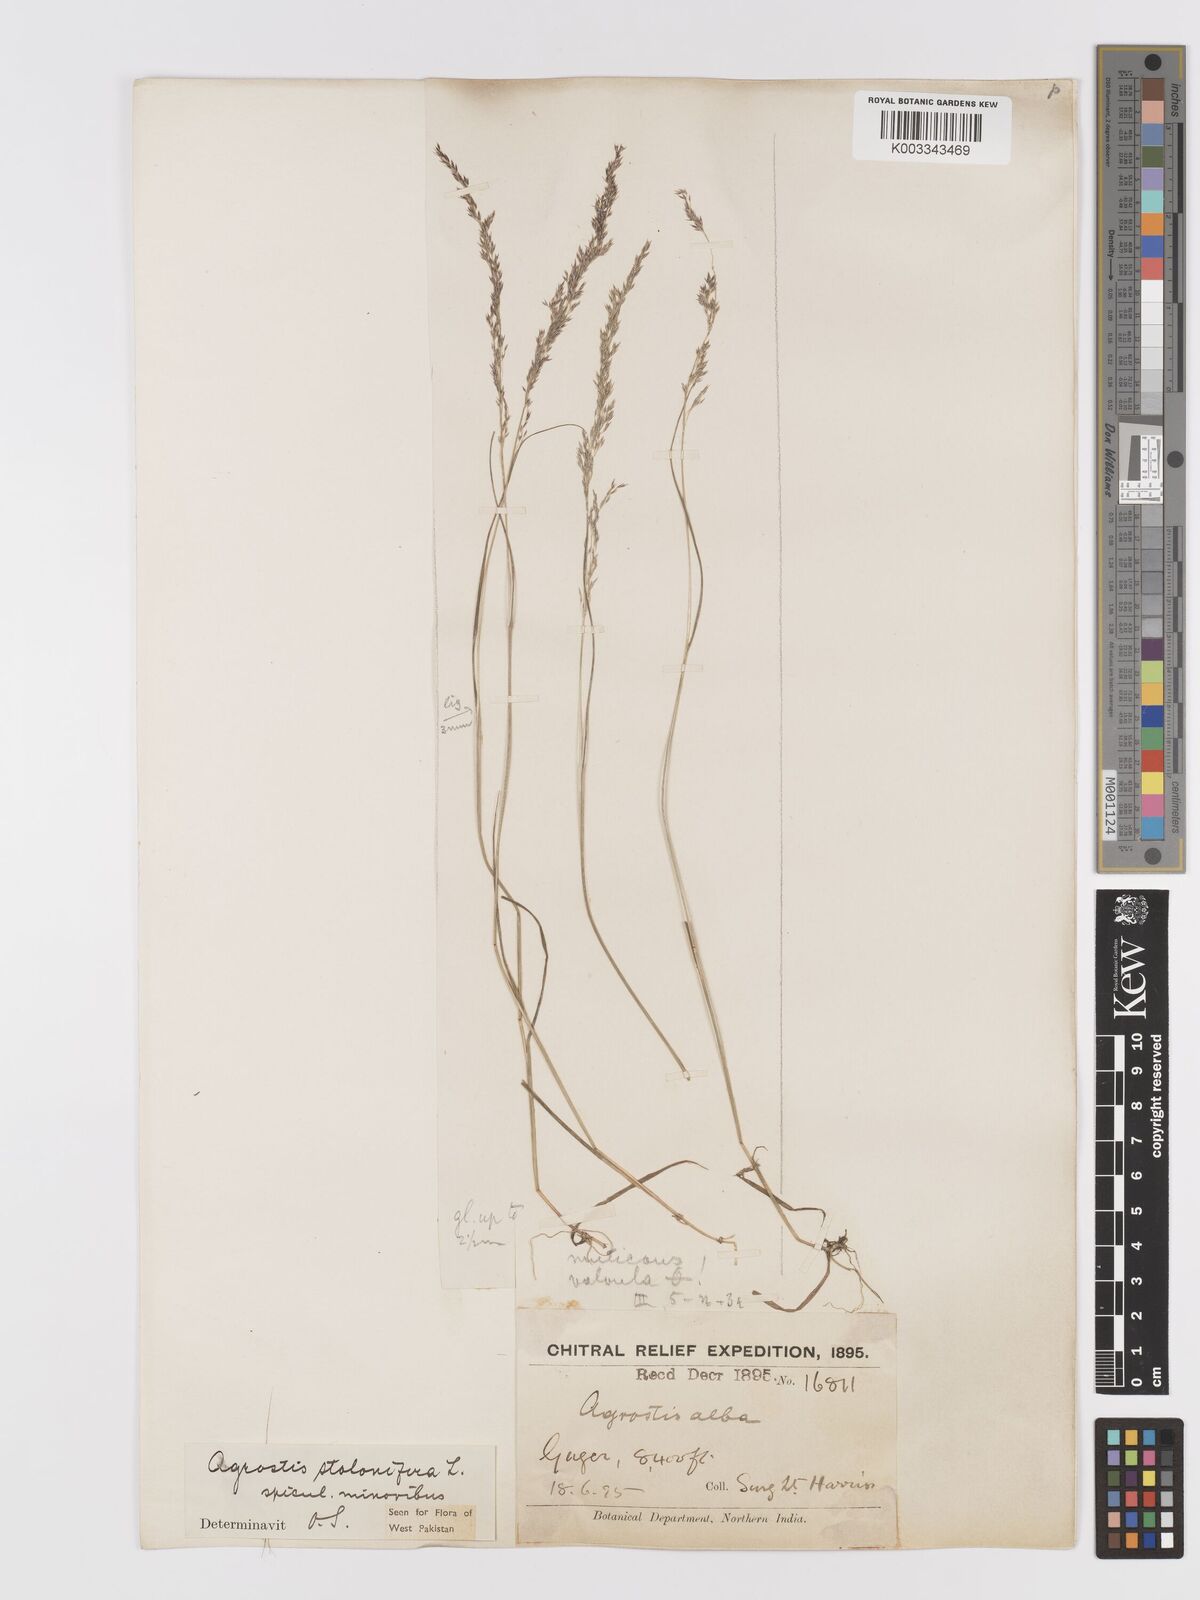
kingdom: Plantae
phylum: Tracheophyta
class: Liliopsida
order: Poales
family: Poaceae
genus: Agrostis
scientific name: Agrostis stolonifera
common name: Creeping bentgrass
